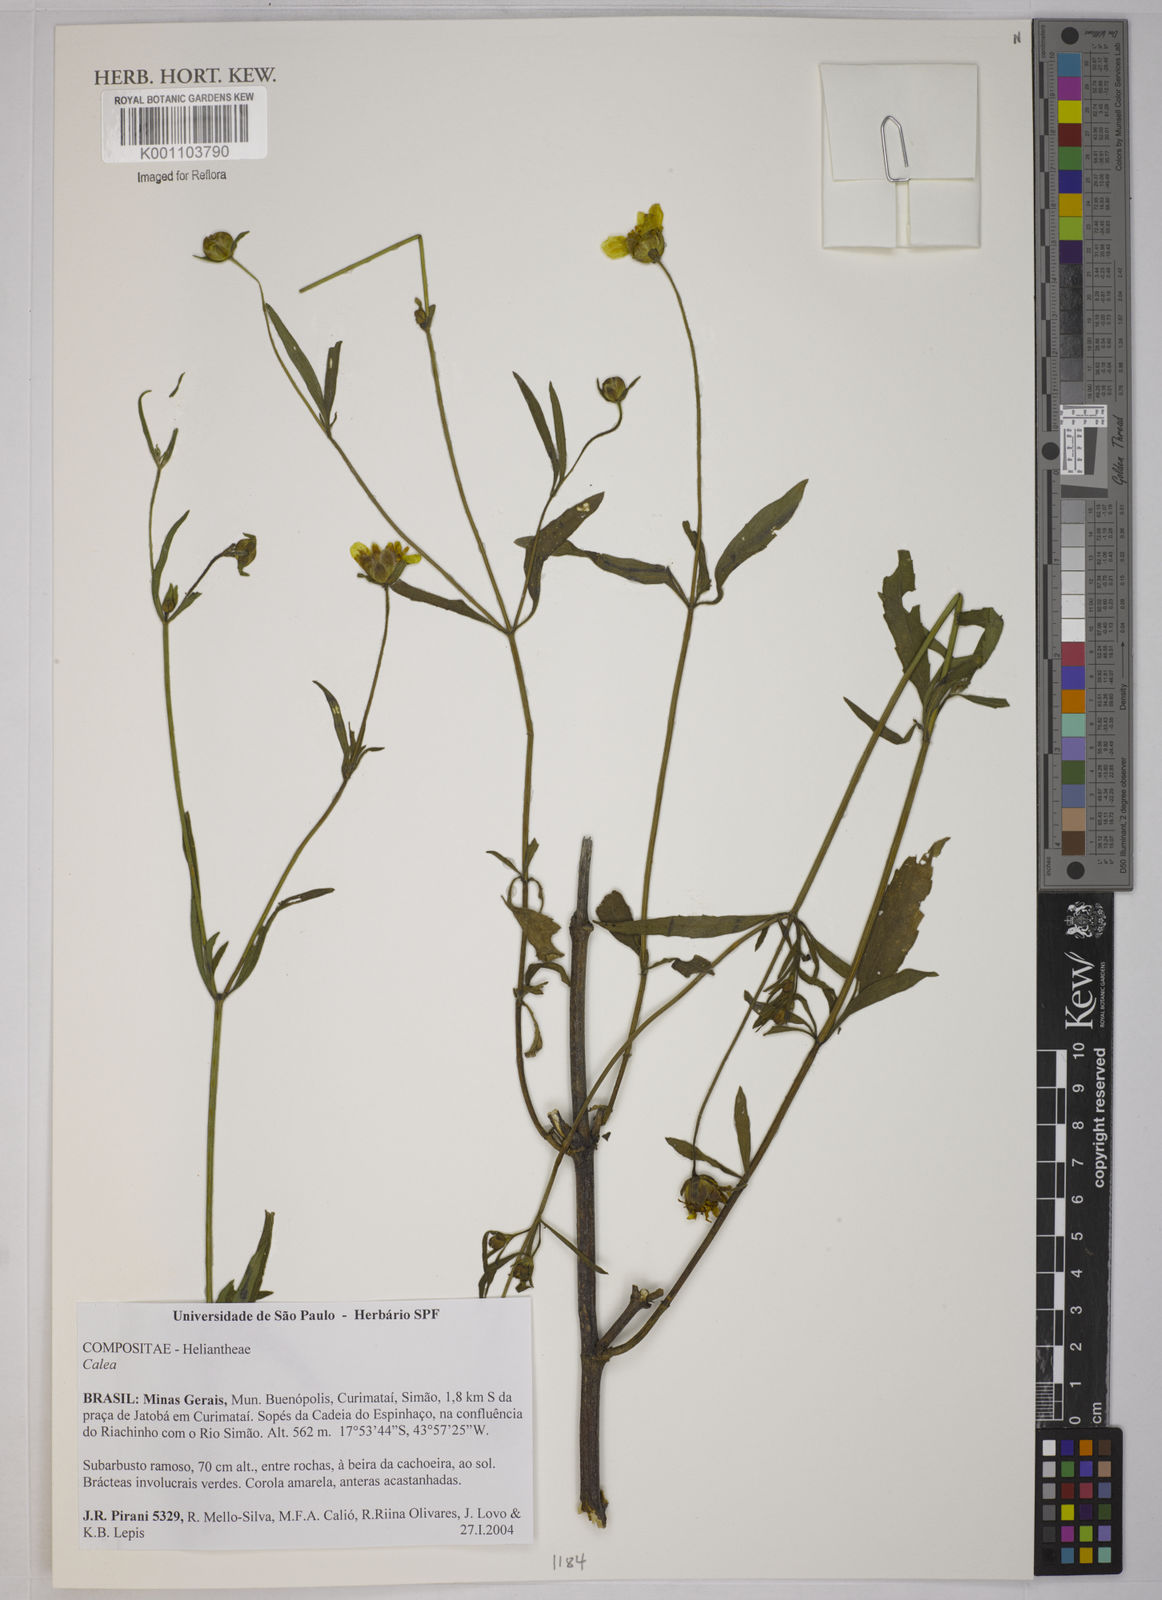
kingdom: Plantae
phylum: Tracheophyta
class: Magnoliopsida
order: Asterales
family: Asteraceae
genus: Calea
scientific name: Calea
